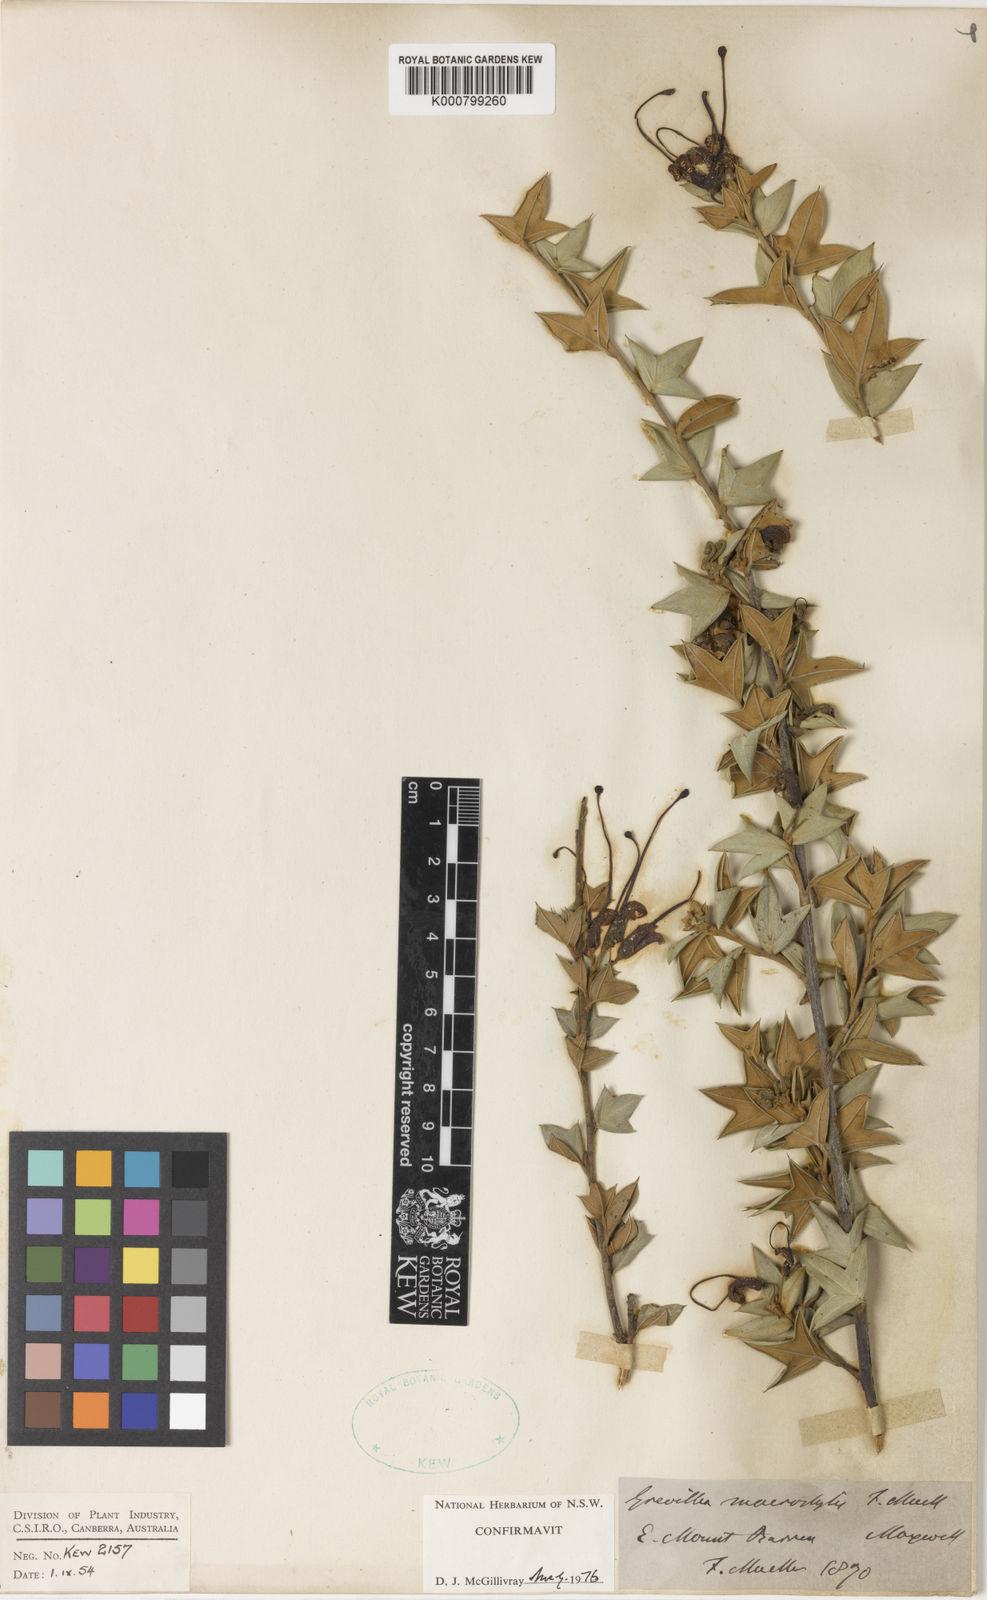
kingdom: Plantae
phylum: Tracheophyta
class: Magnoliopsida
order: Proteales
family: Proteaceae
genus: Grevillea
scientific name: Grevillea tripartita
